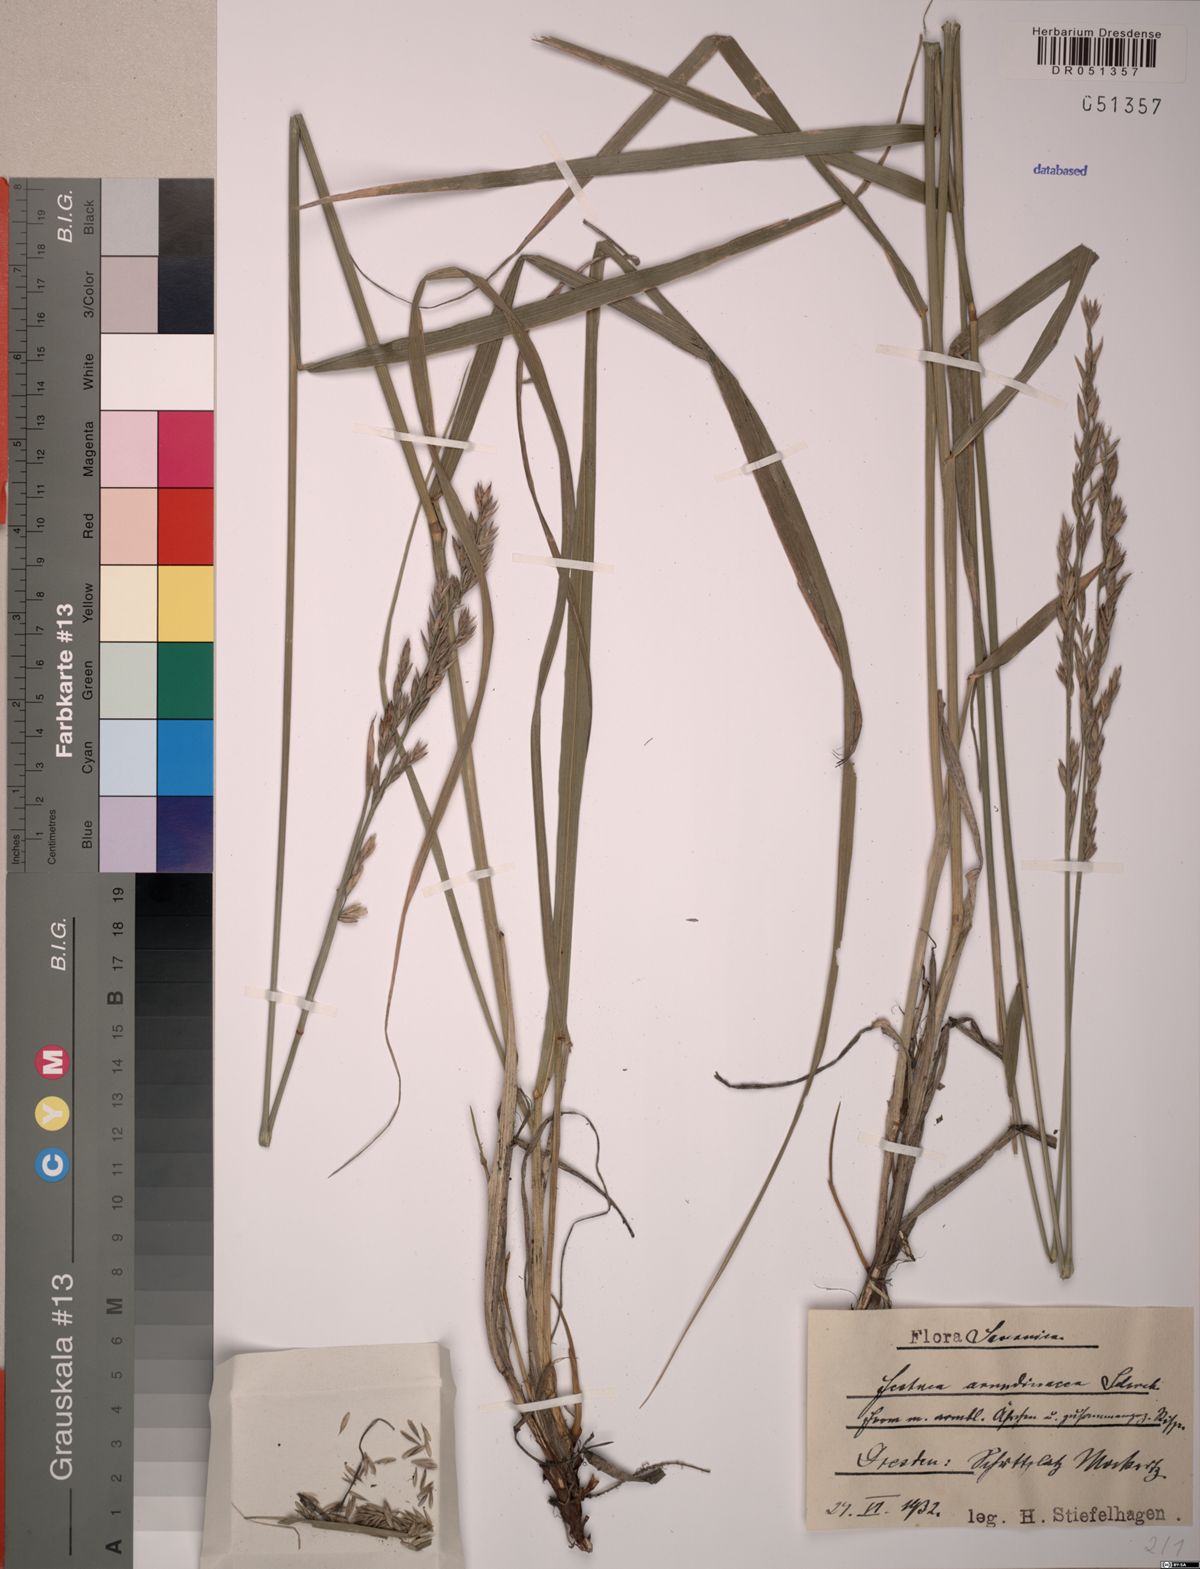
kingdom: Plantae
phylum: Tracheophyta
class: Liliopsida
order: Poales
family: Poaceae
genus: Lolium
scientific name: Lolium arundinaceum
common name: Reed fescue
